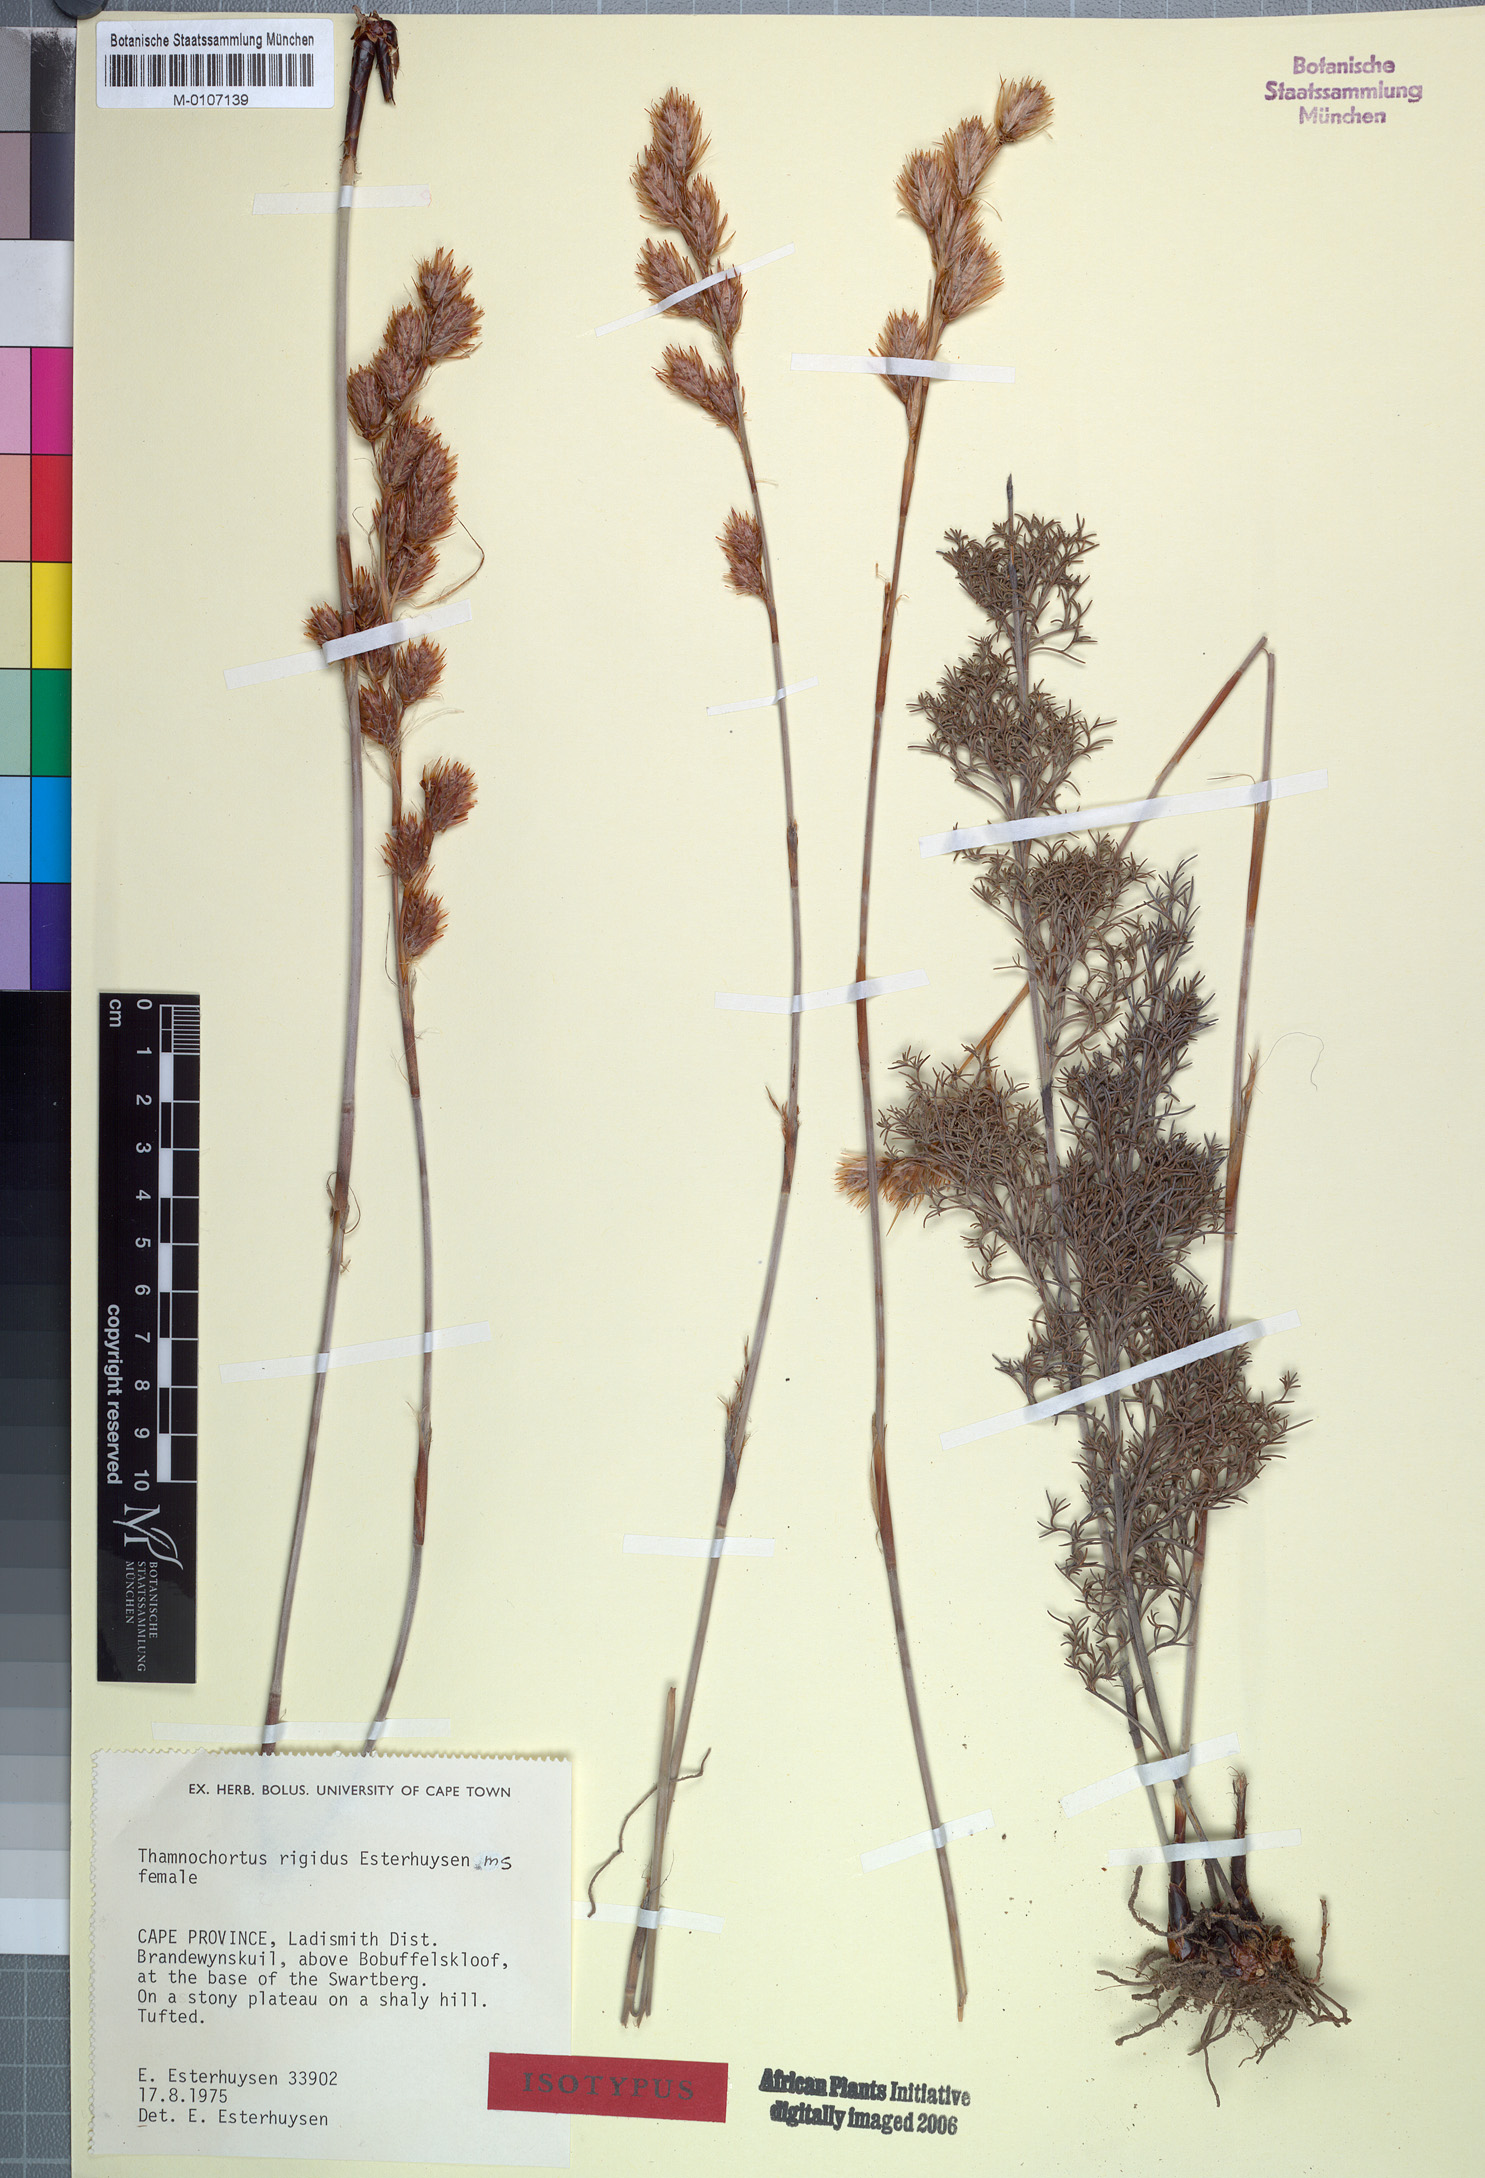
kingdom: Plantae
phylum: Tracheophyta
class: Liliopsida
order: Poales
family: Restionaceae
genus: Thamnochortus
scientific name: Thamnochortus rigidus
